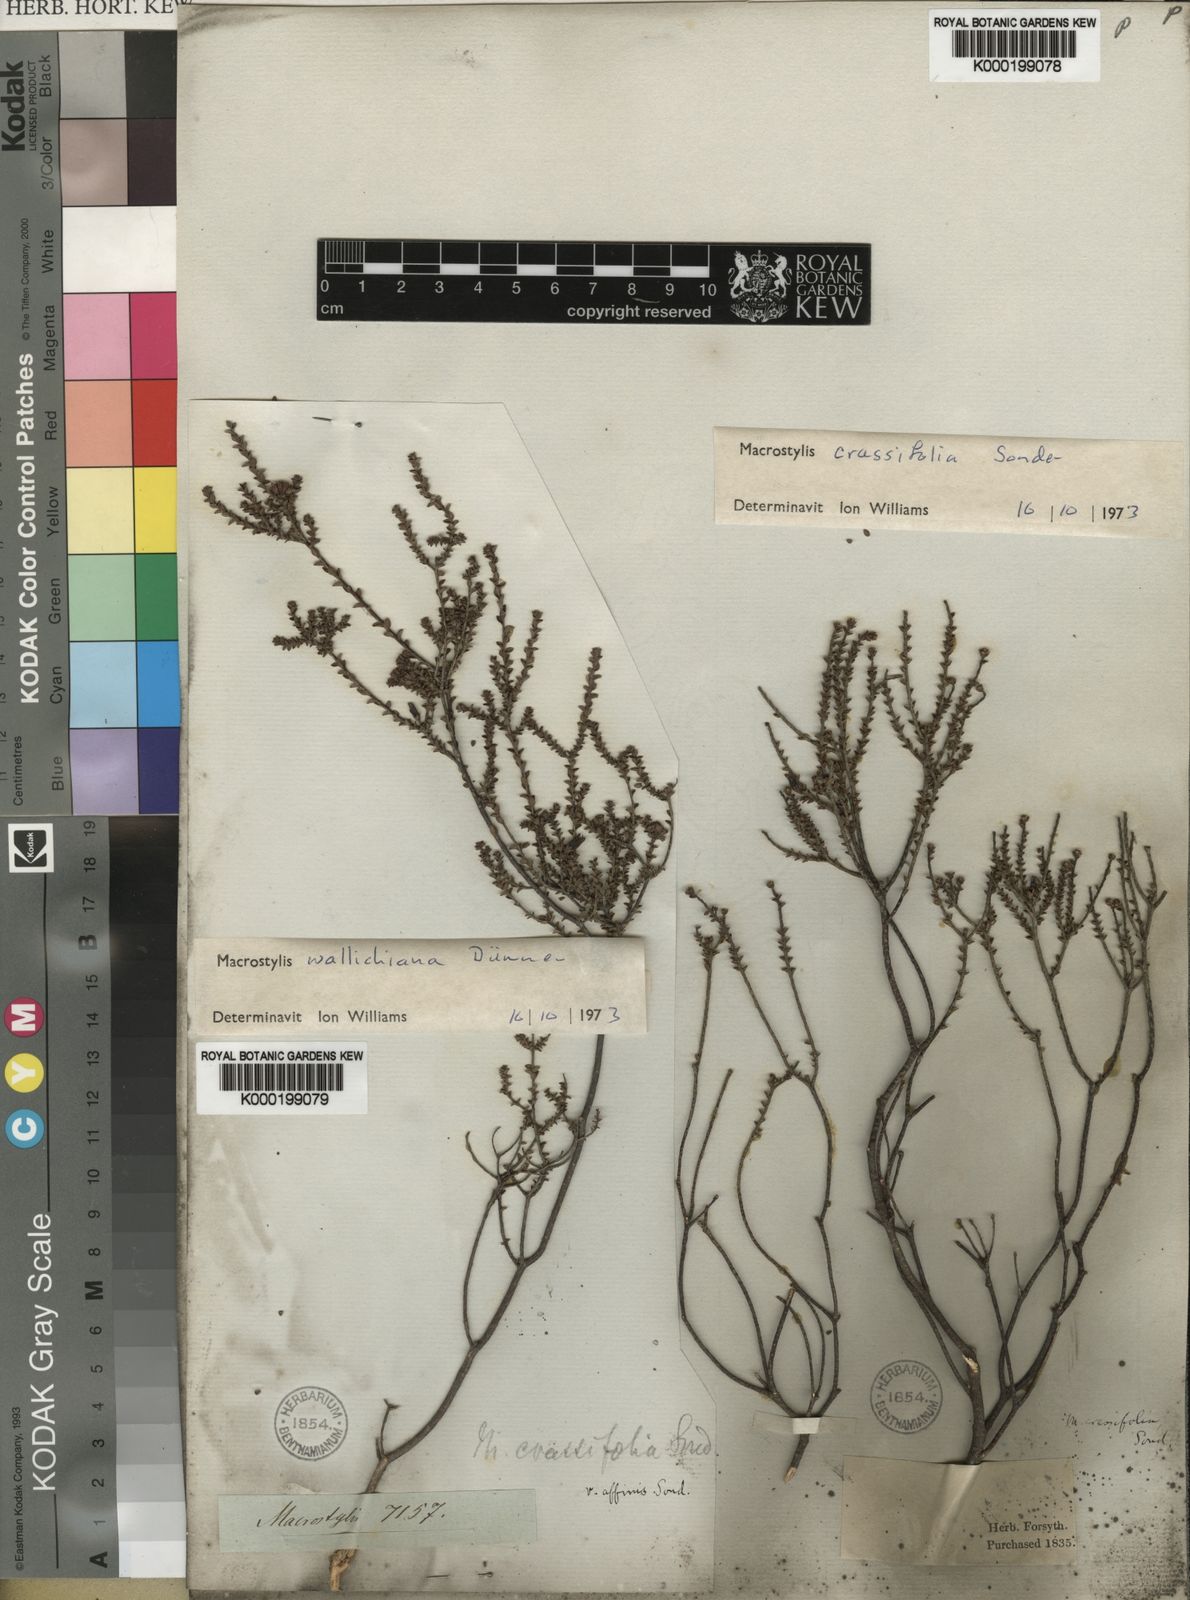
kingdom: Plantae
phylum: Tracheophyta
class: Magnoliopsida
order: Sapindales
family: Rutaceae
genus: Macrostylis
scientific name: Macrostylis crassifolia
